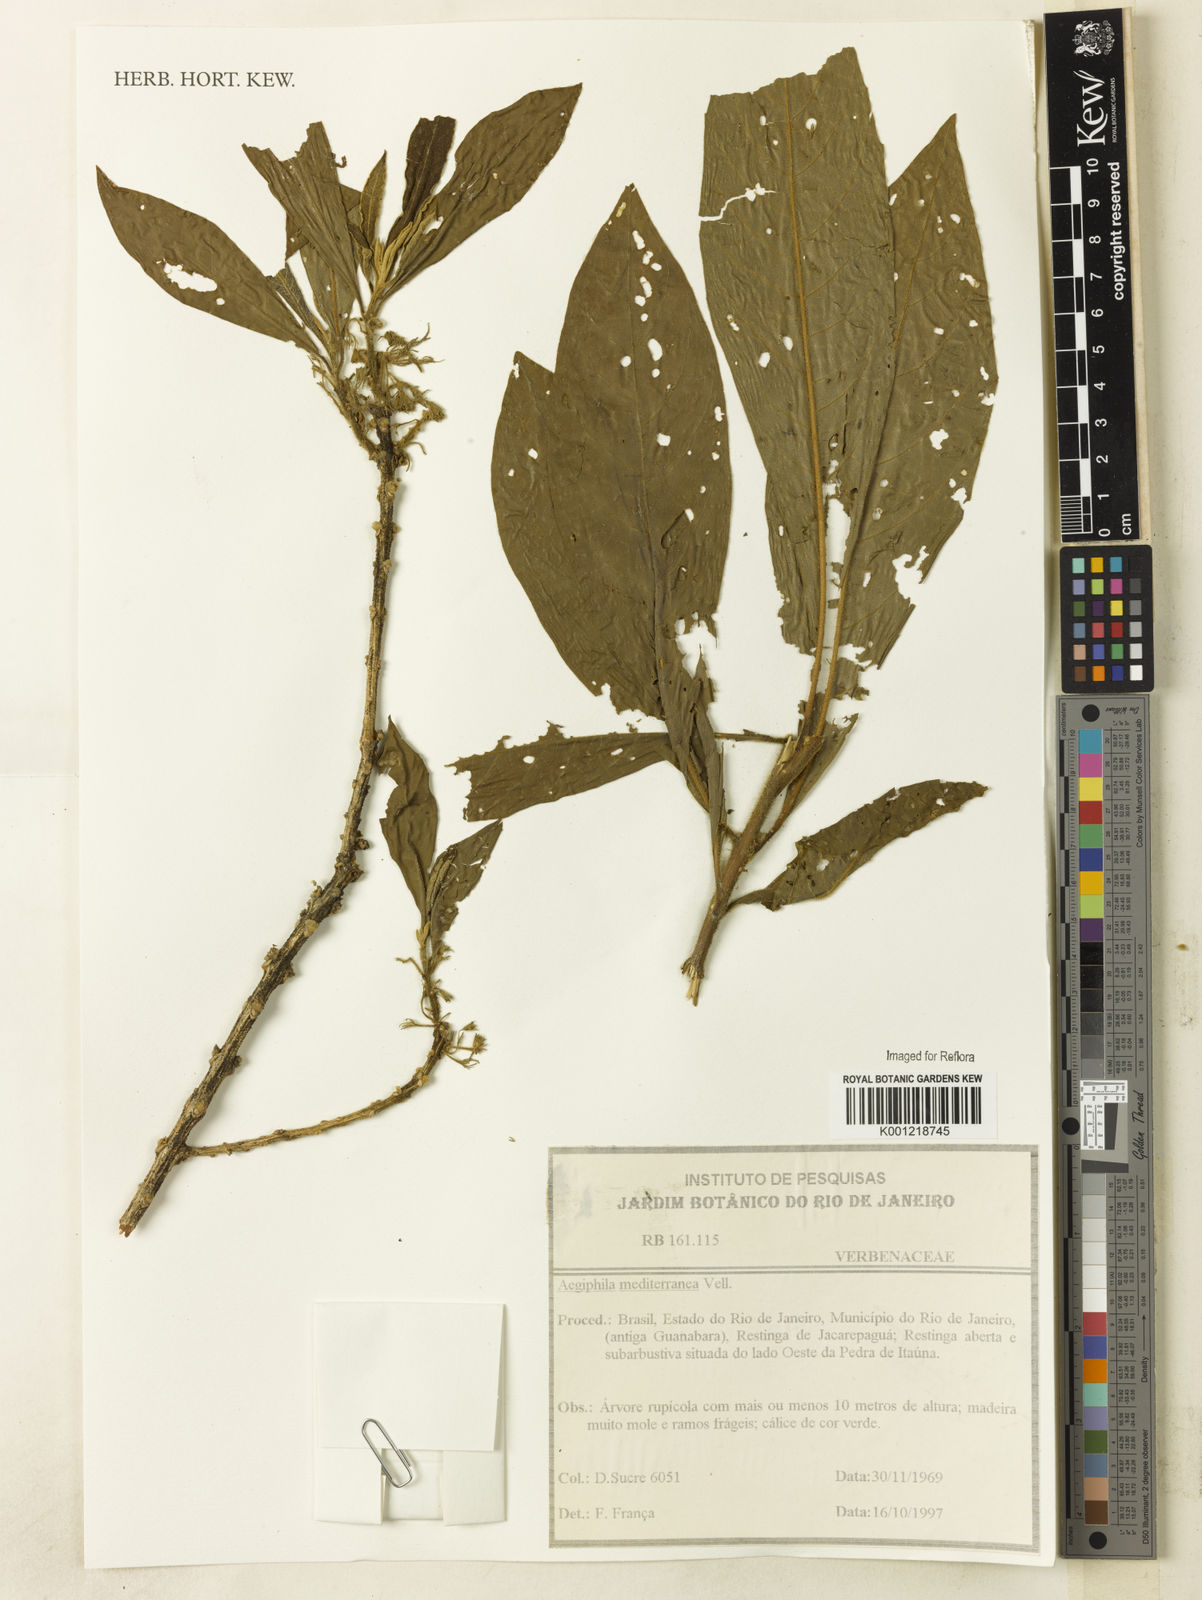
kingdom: Plantae
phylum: Tracheophyta
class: Magnoliopsida
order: Lamiales
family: Lamiaceae
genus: Aegiphila
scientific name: Aegiphila mediterranea
